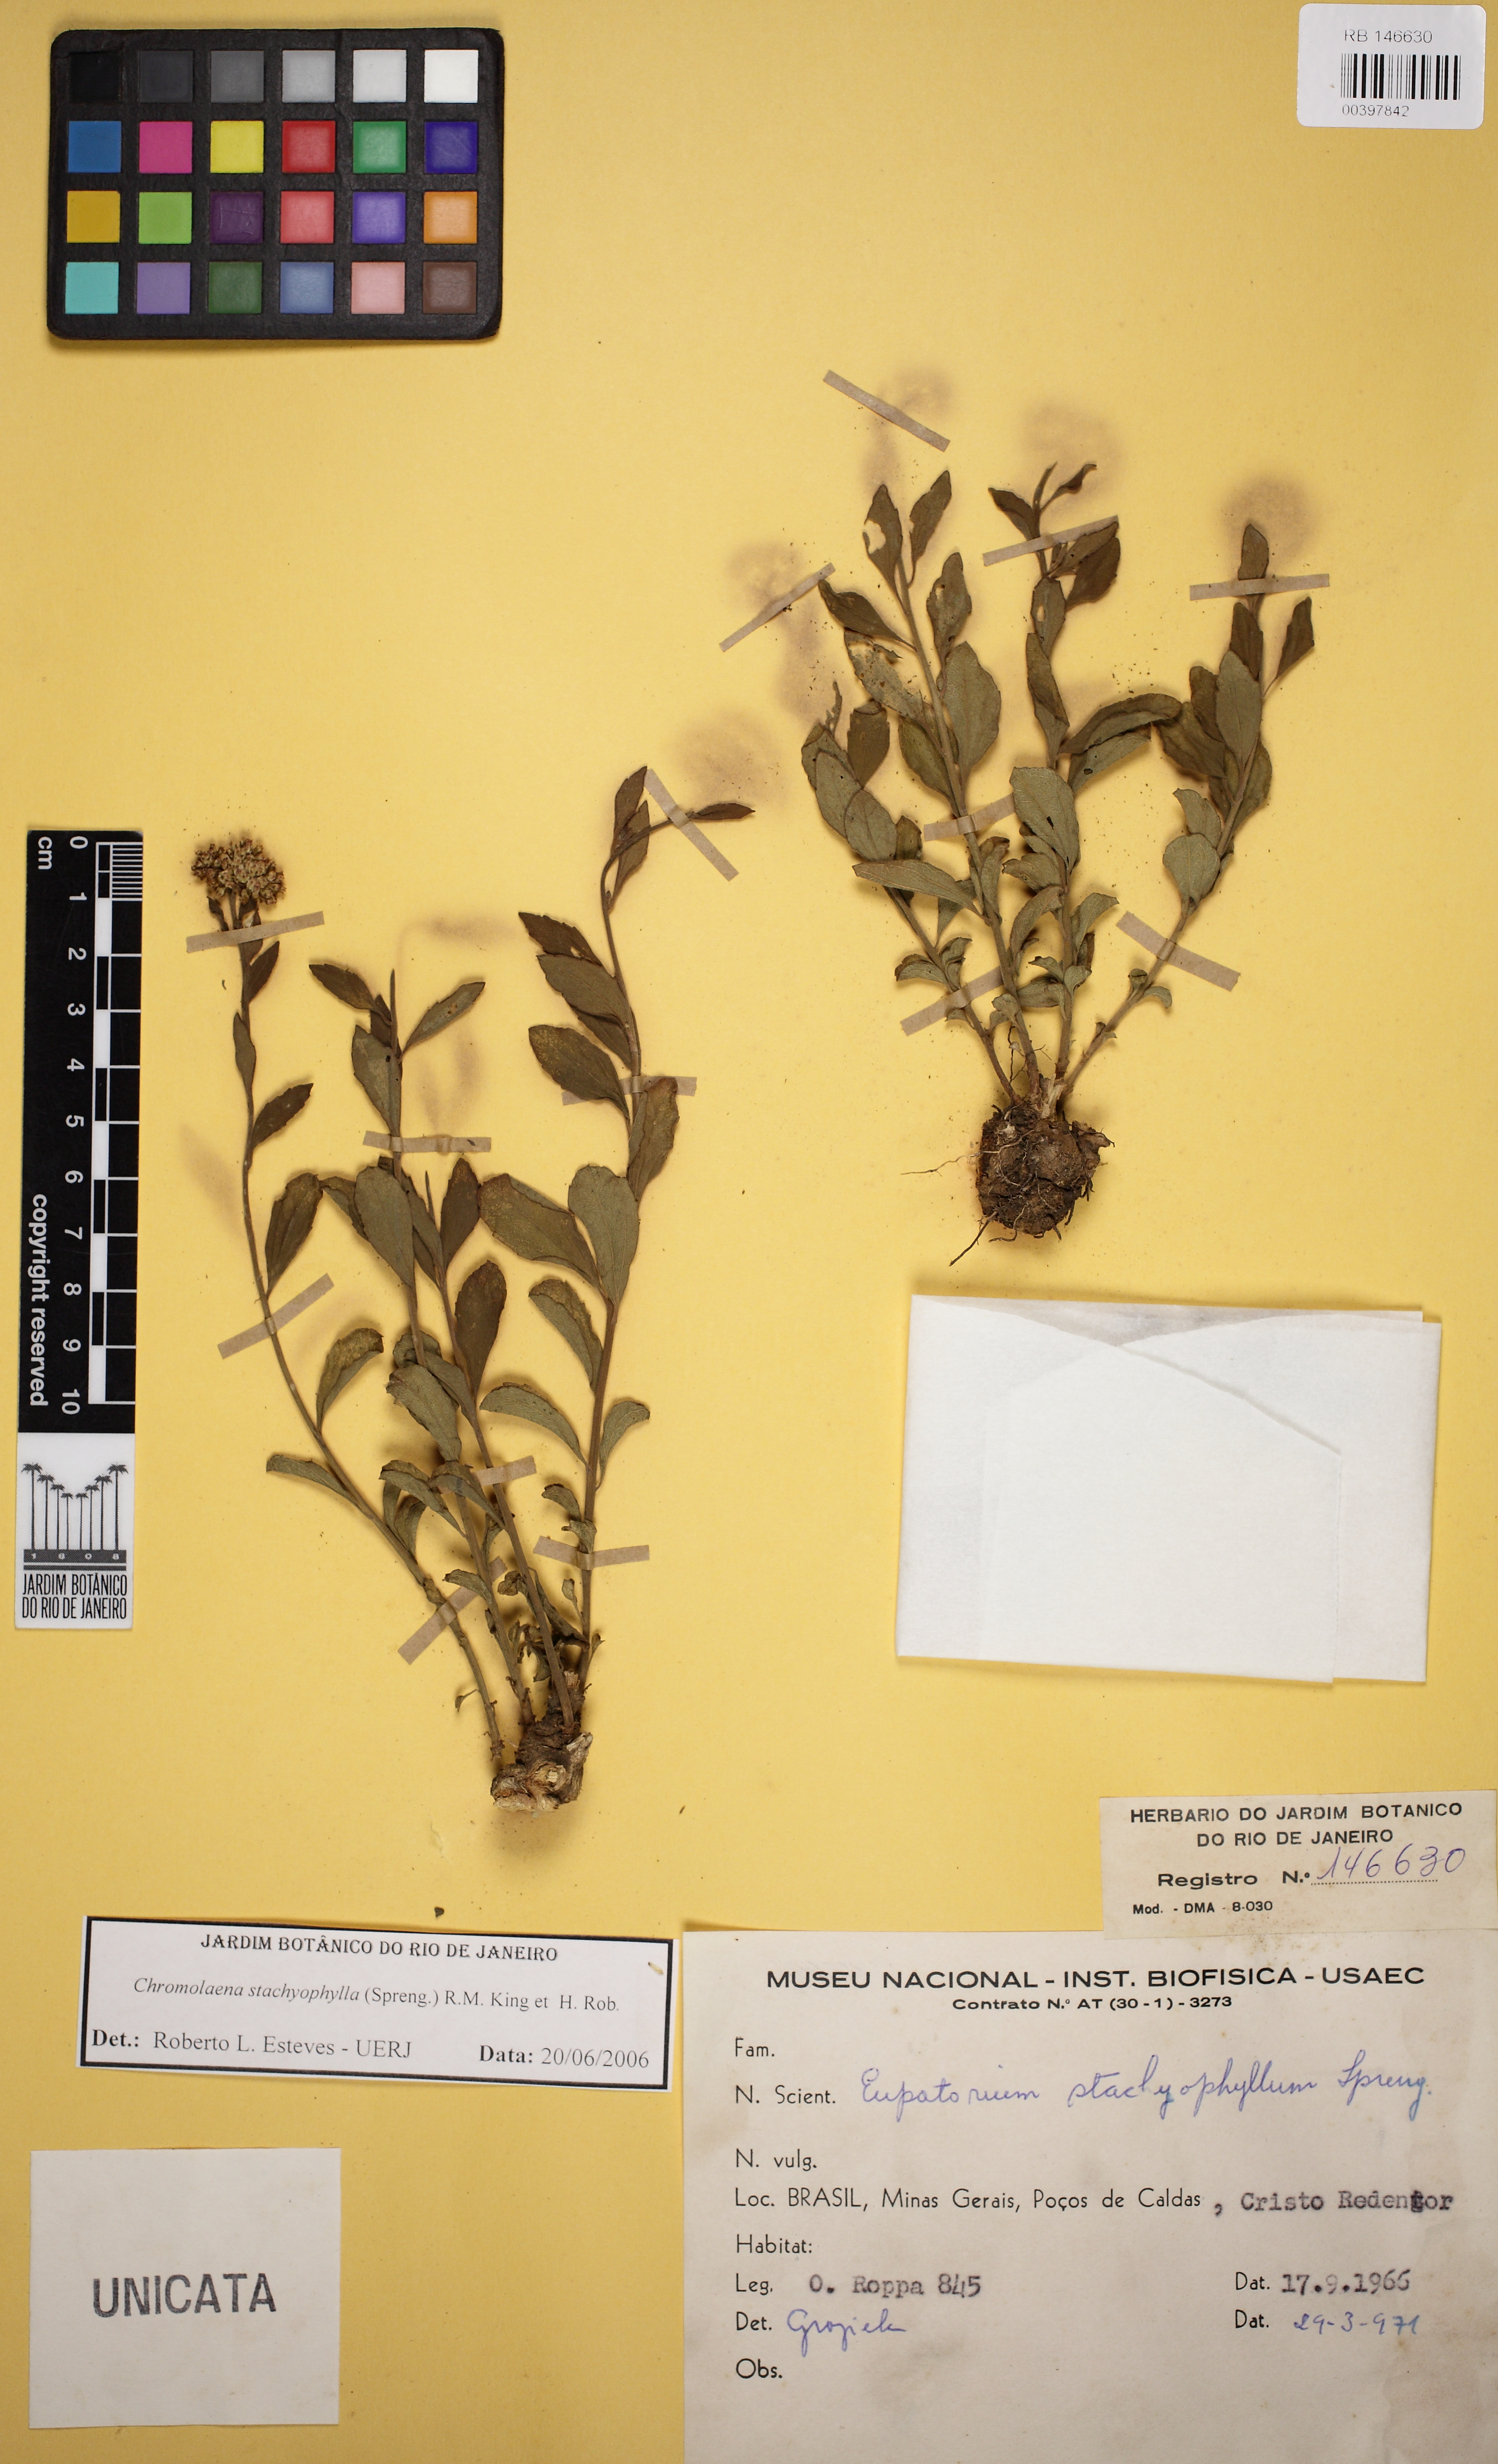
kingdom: Plantae
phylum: Tracheophyta
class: Magnoliopsida
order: Asterales
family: Asteraceae
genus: Chromolaena
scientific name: Chromolaena stachyophylla
